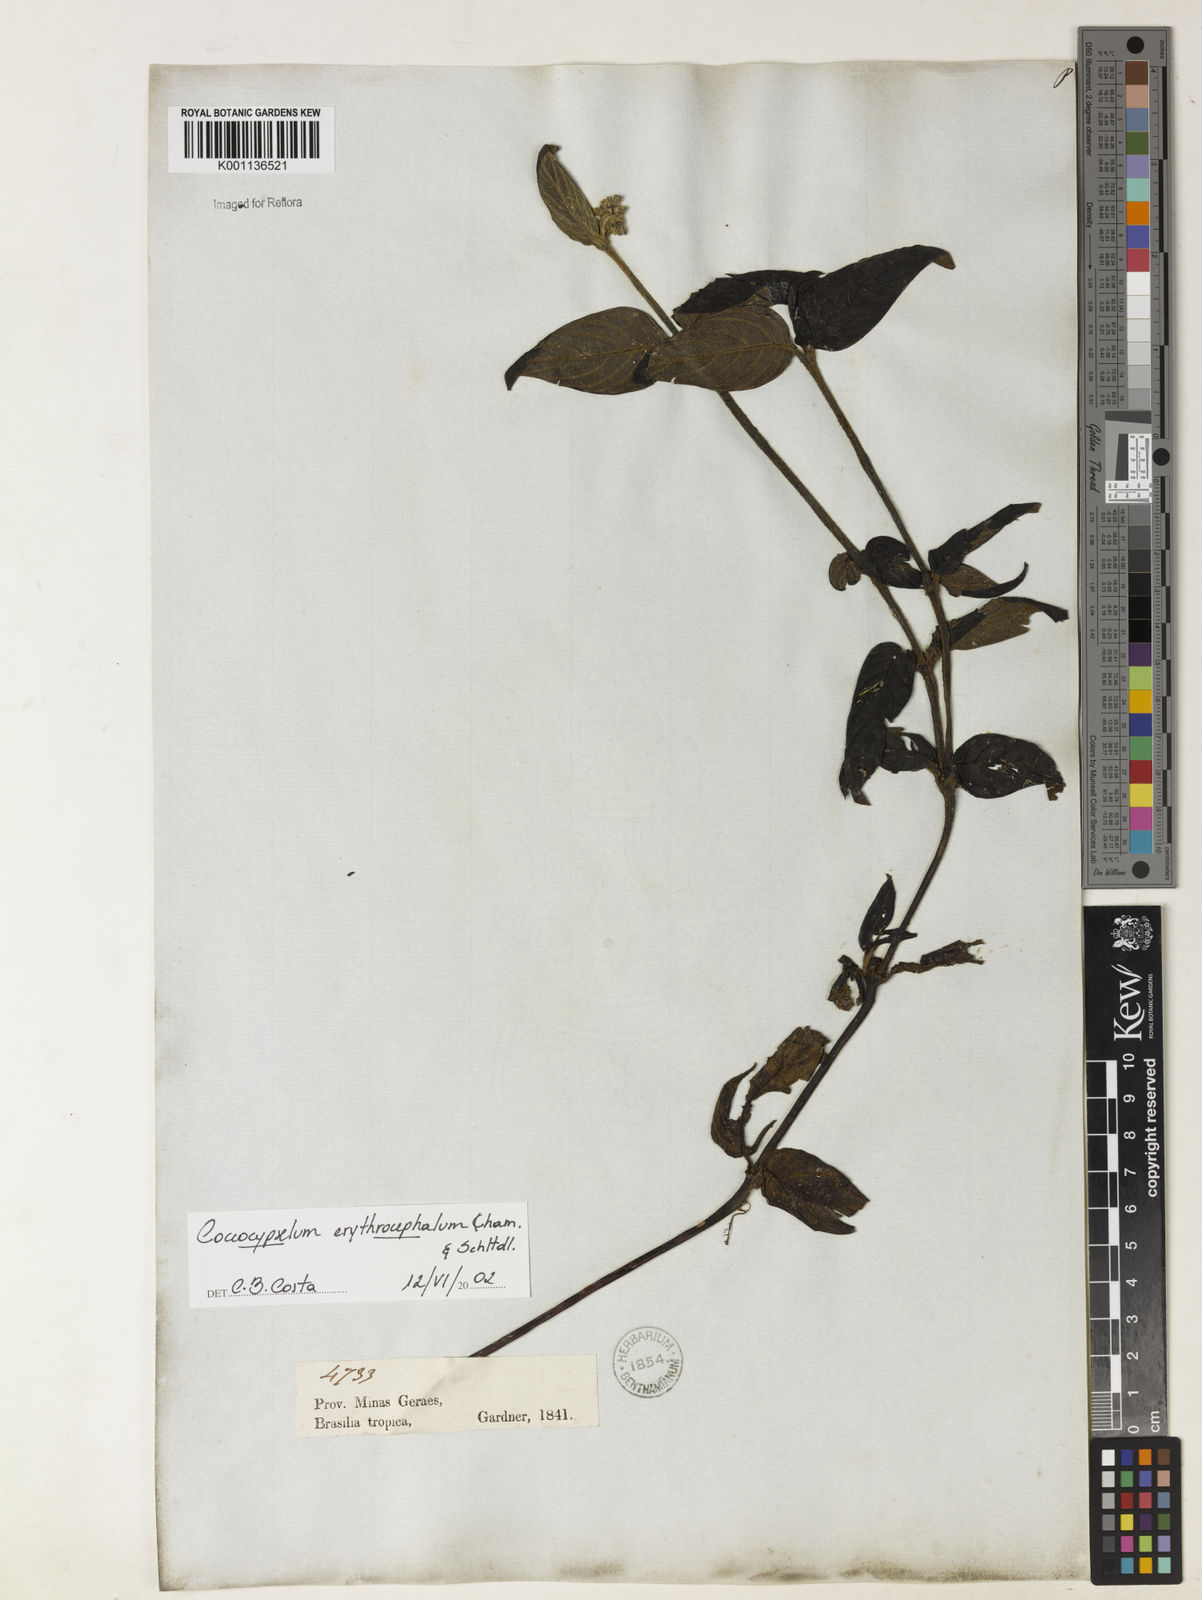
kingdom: Plantae
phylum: Tracheophyta
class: Magnoliopsida
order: Gentianales
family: Rubiaceae
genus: Coccocypselum
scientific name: Coccocypselum erythrocephalum
